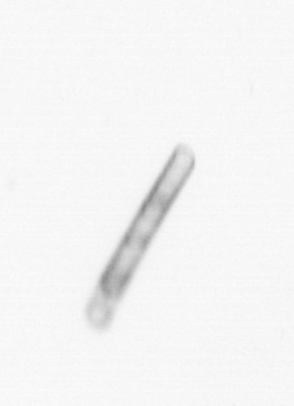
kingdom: Chromista
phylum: Ochrophyta
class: Bacillariophyceae
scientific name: Bacillariophyceae
